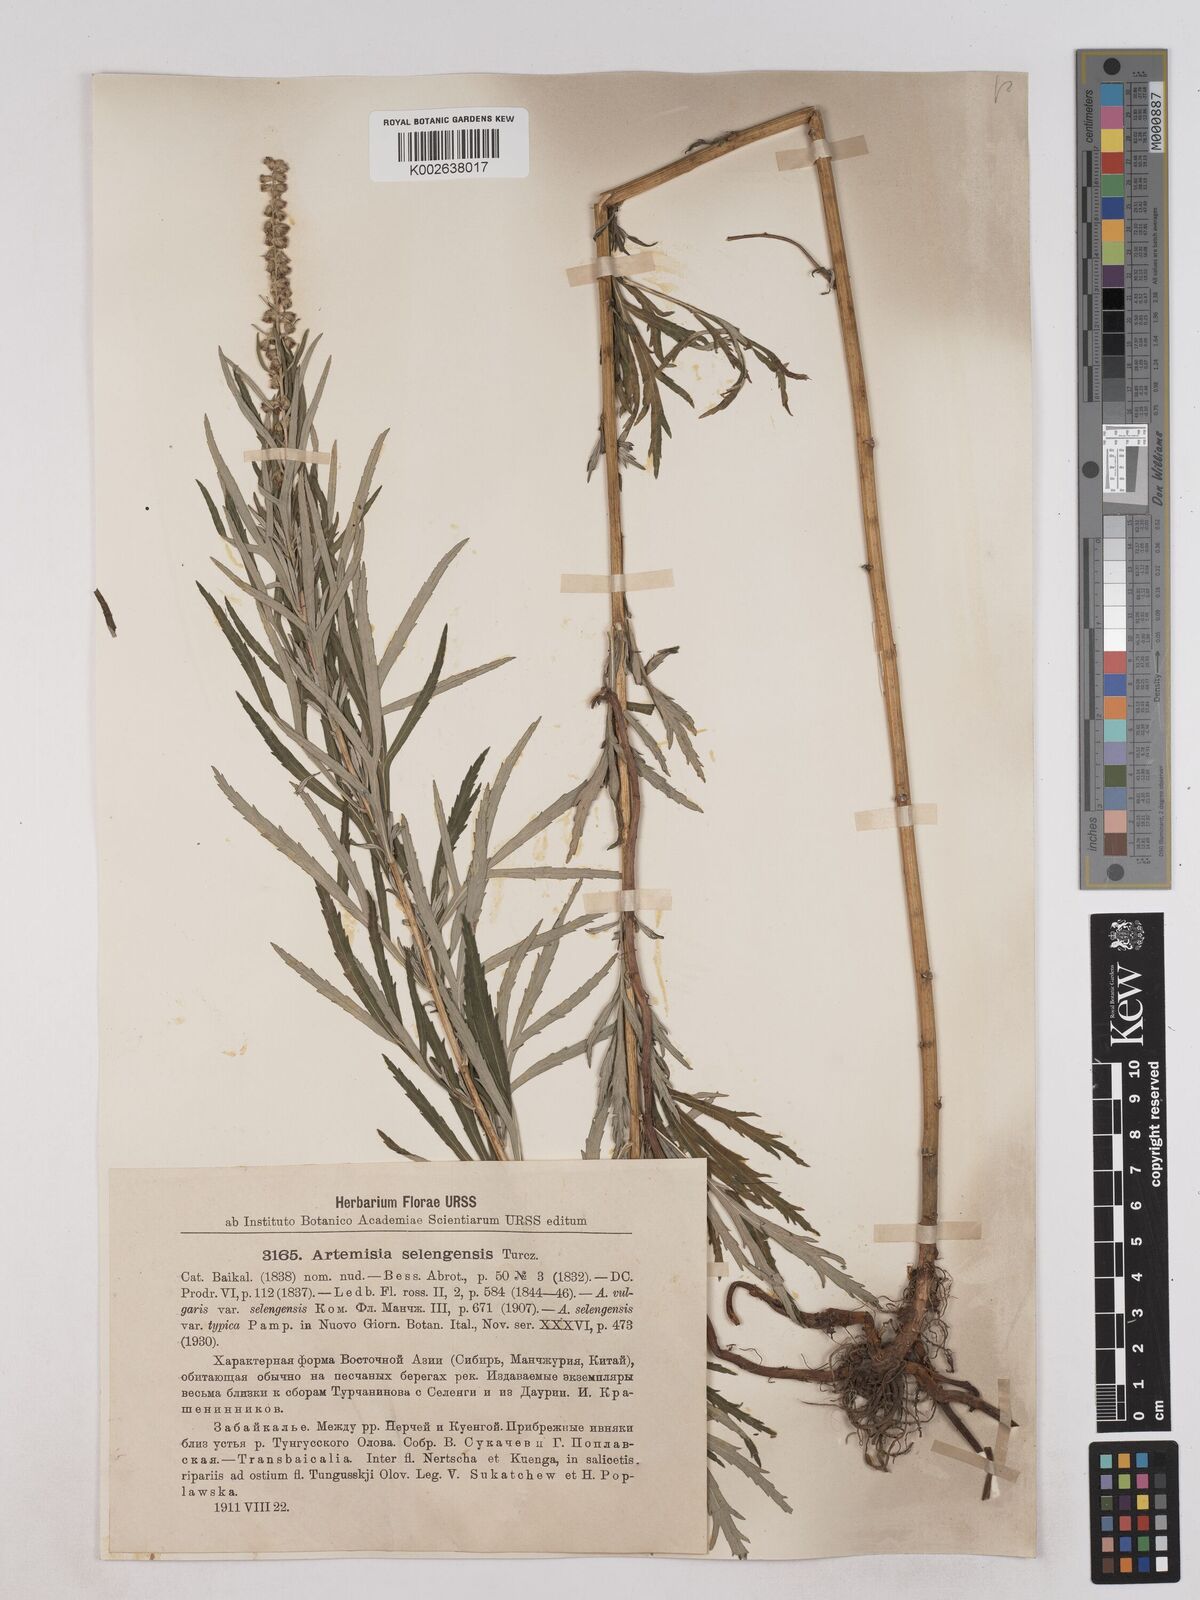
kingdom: Plantae
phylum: Tracheophyta
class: Magnoliopsida
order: Asterales
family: Asteraceae
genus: Artemisia
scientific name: Artemisia selengensis
